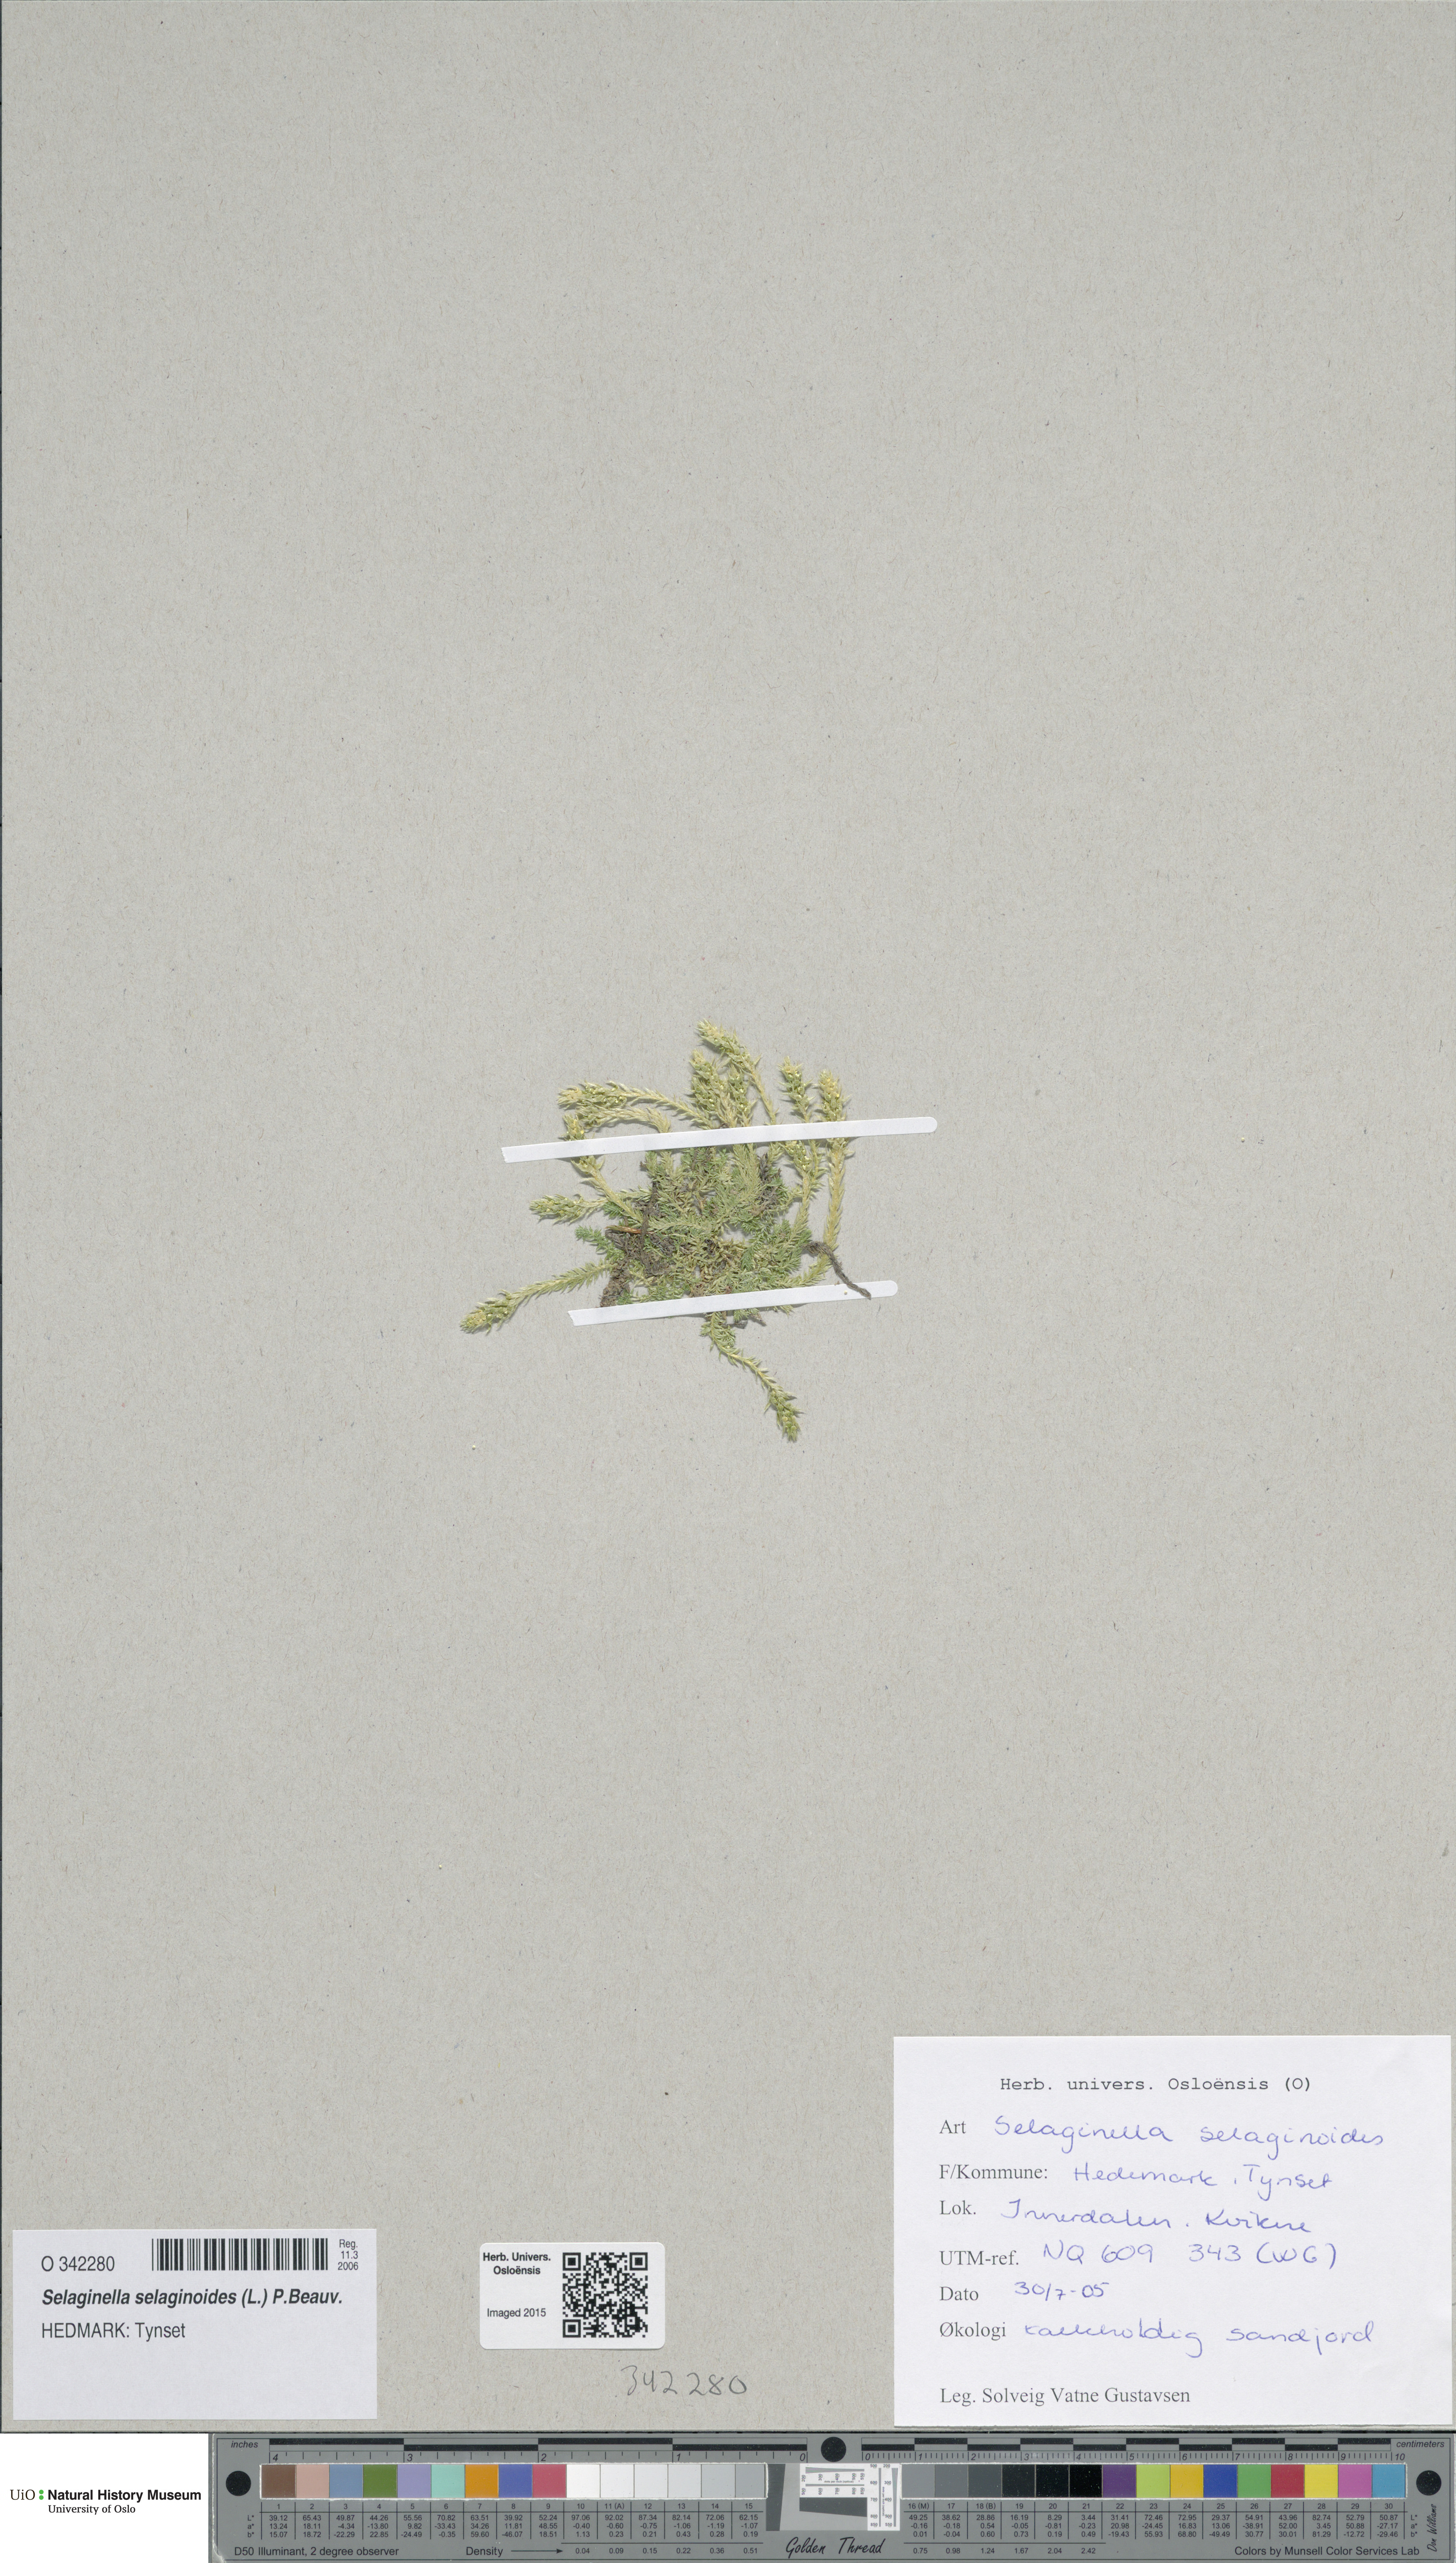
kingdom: Plantae
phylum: Tracheophyta
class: Lycopodiopsida
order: Selaginellales
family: Selaginellaceae
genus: Selaginella
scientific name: Selaginella selaginoides
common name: Prickly mountain-moss
